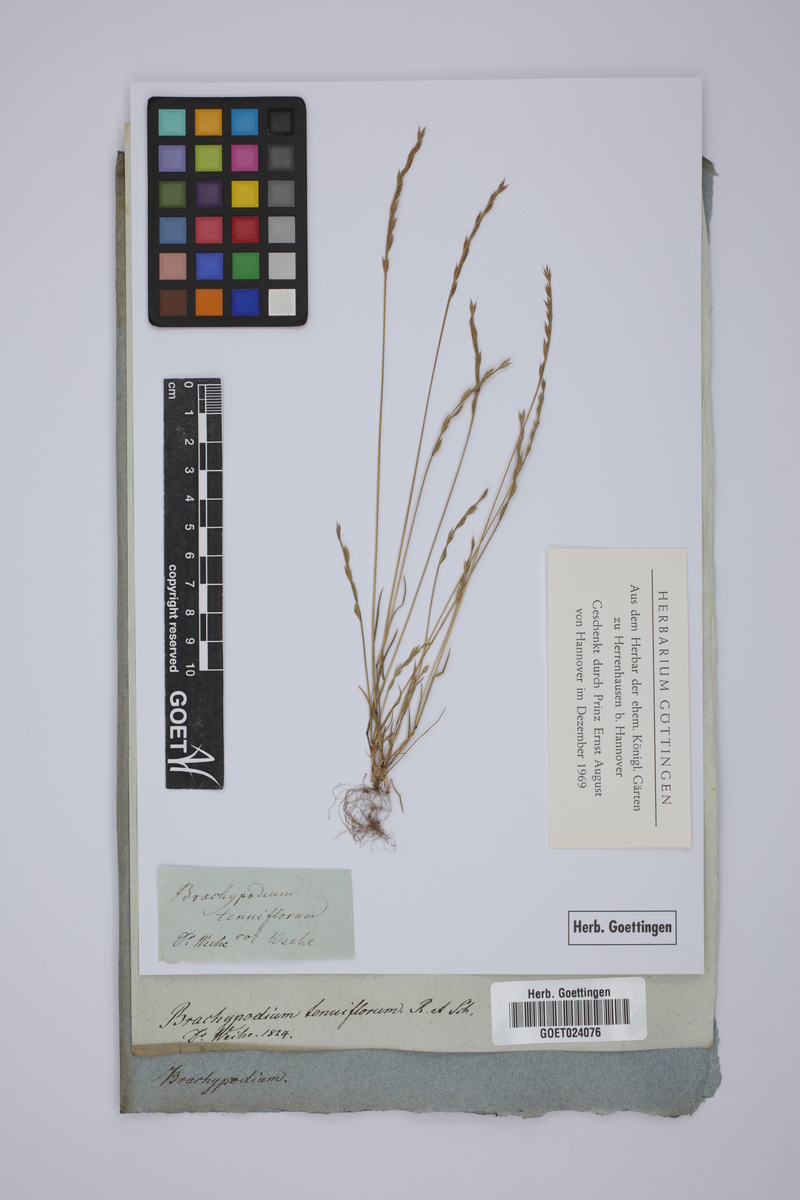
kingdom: Plantae
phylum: Tracheophyta
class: Liliopsida
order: Poales
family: Poaceae
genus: Festuca
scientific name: Festuca maritima
